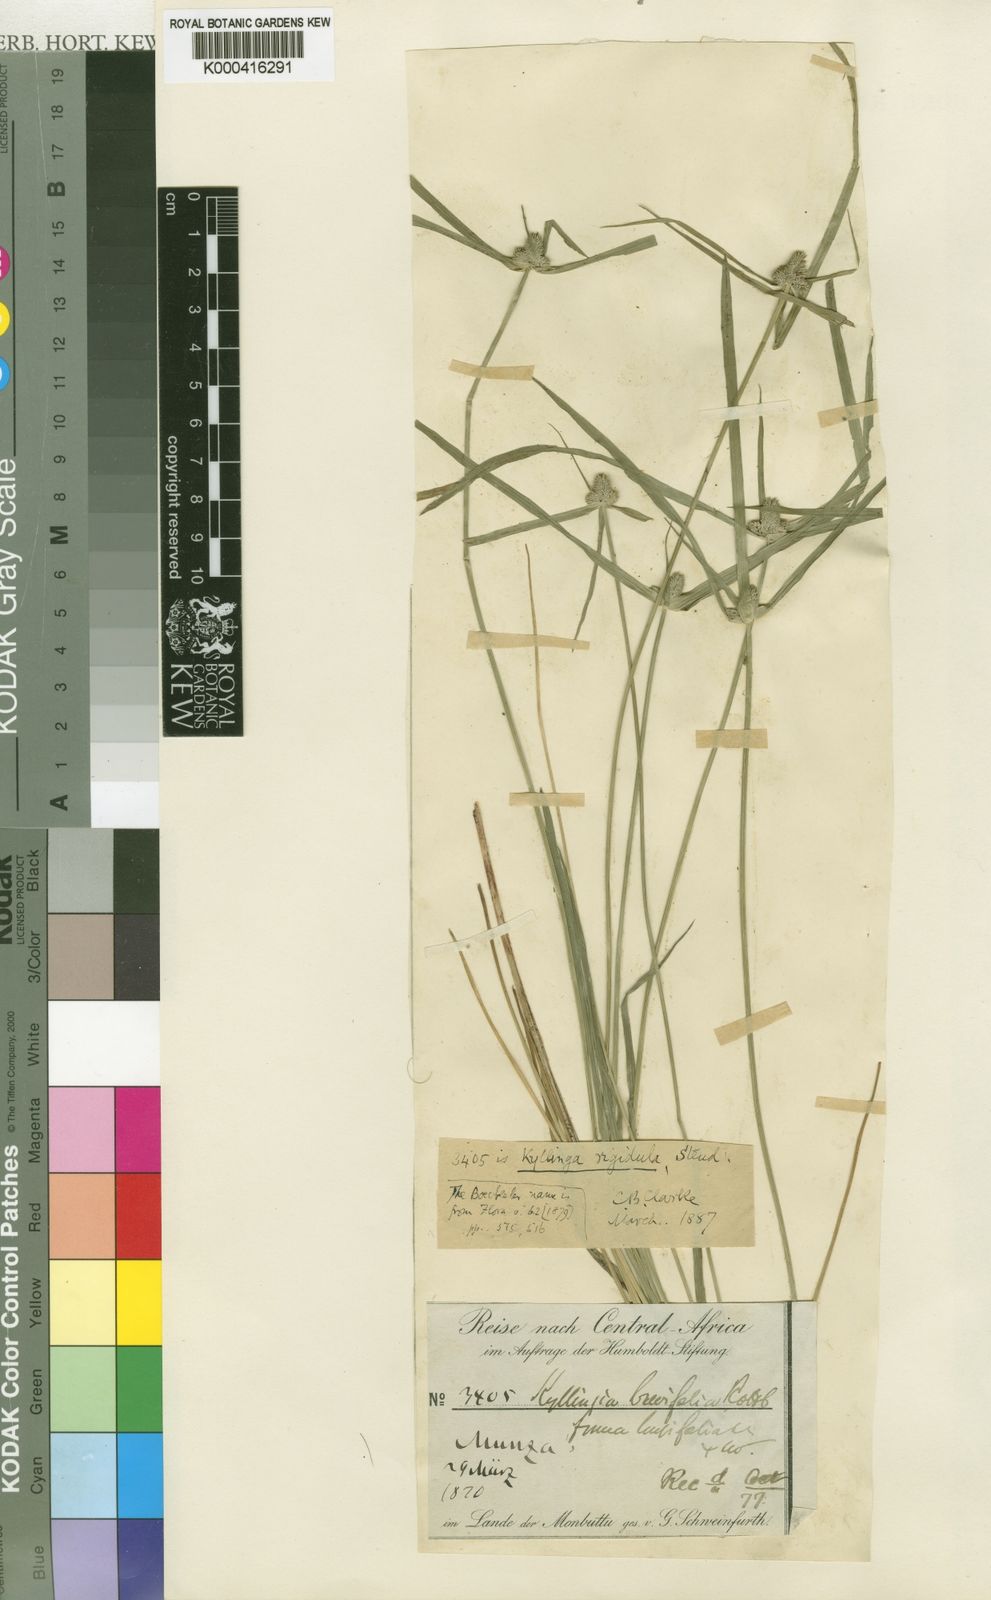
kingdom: Plantae
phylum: Tracheophyta
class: Liliopsida
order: Poales
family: Cyperaceae
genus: Cyperus
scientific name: Cyperus hortensis
